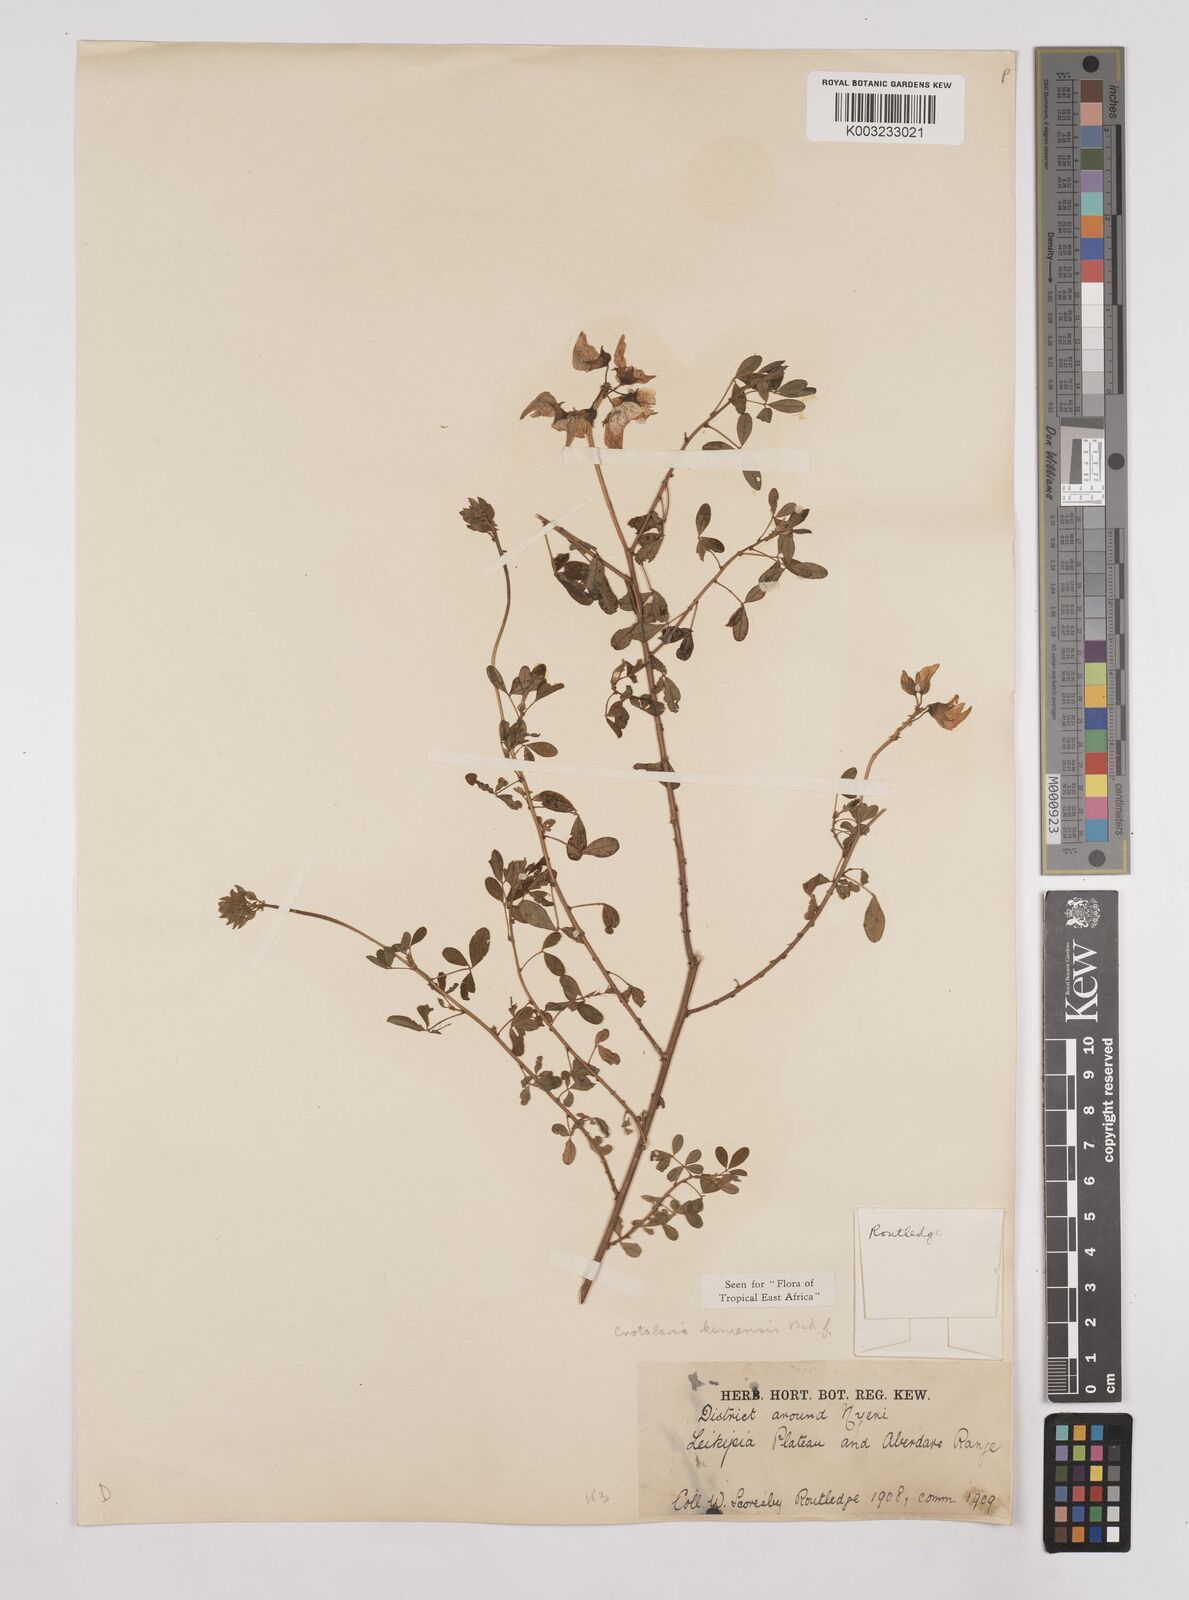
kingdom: Plantae
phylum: Tracheophyta
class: Magnoliopsida
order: Fabales
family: Fabaceae
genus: Crotalaria
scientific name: Crotalaria keniensis
